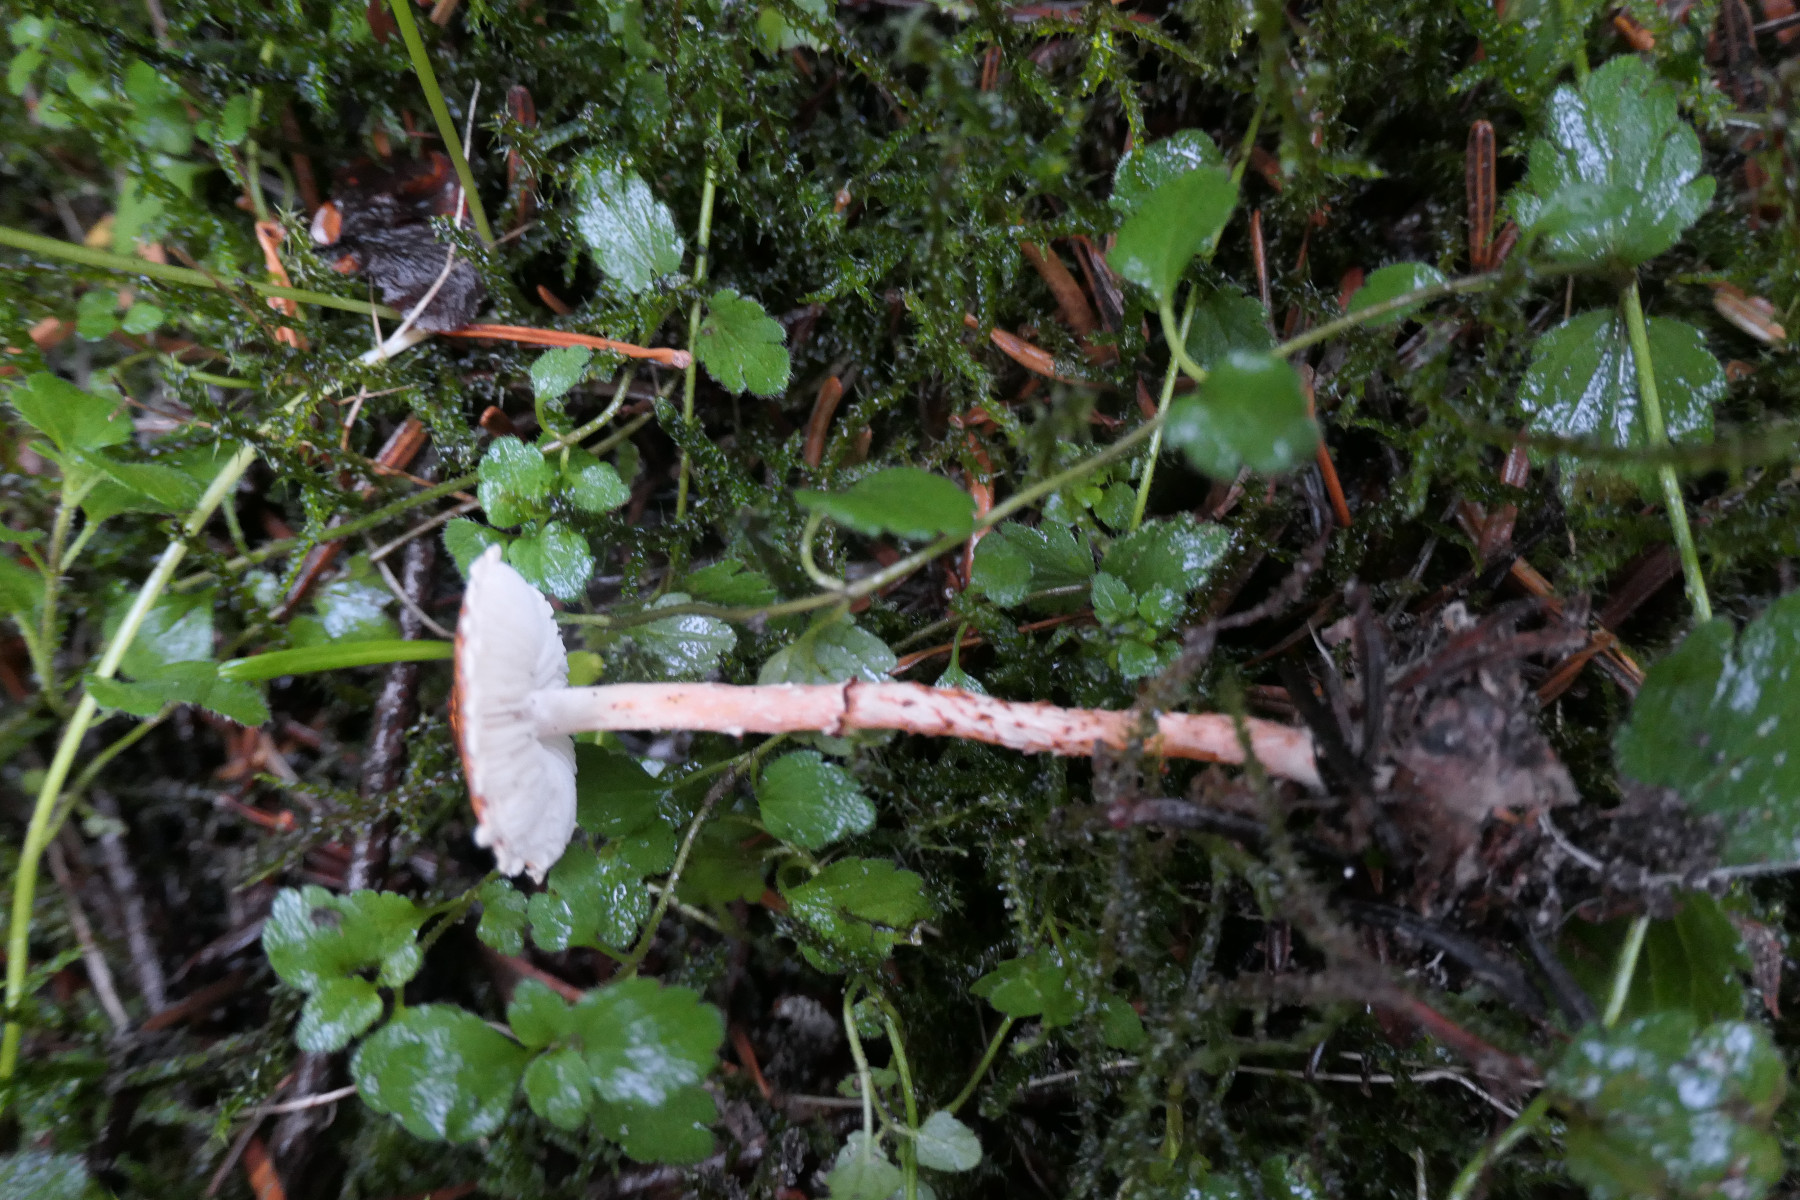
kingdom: Fungi
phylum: Basidiomycota
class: Agaricomycetes
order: Agaricales
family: Agaricaceae
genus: Lepiota
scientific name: Lepiota castanea
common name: kastaniebrun parasolhat
